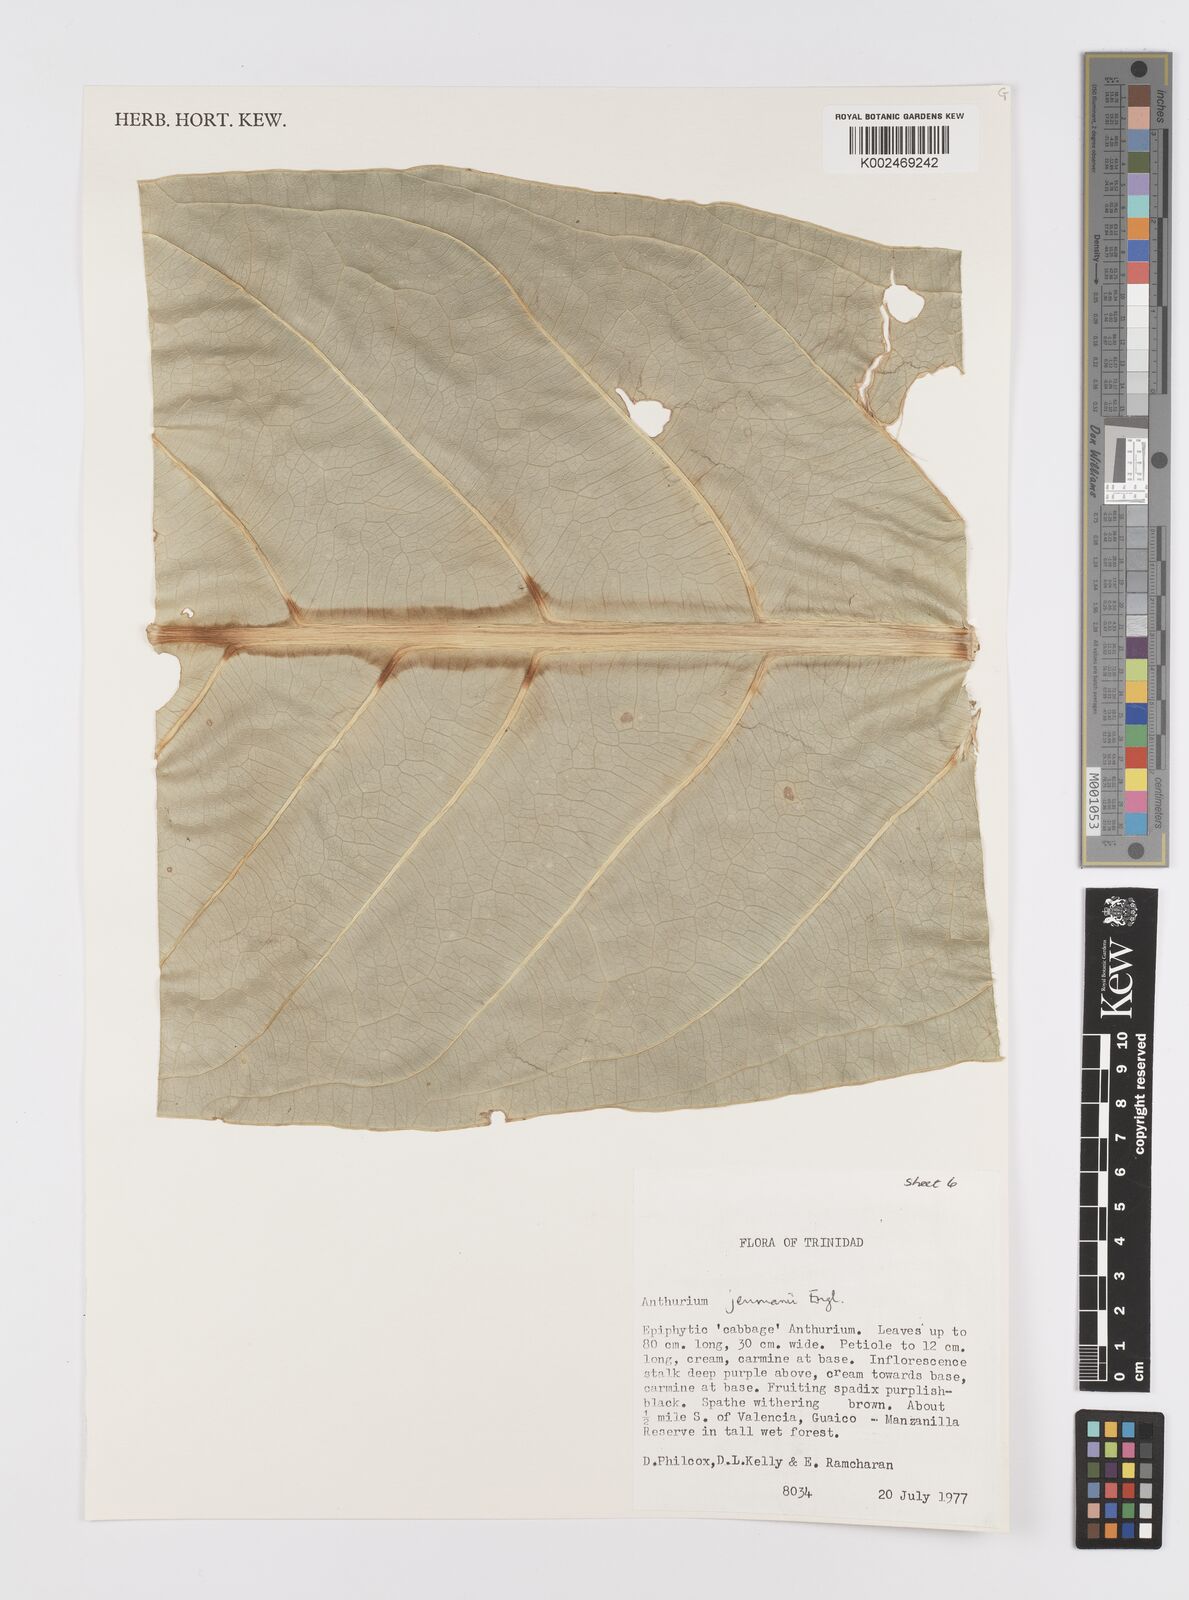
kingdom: Plantae
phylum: Tracheophyta
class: Liliopsida
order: Alismatales
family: Araceae
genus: Anthurium
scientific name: Anthurium jenmanii
